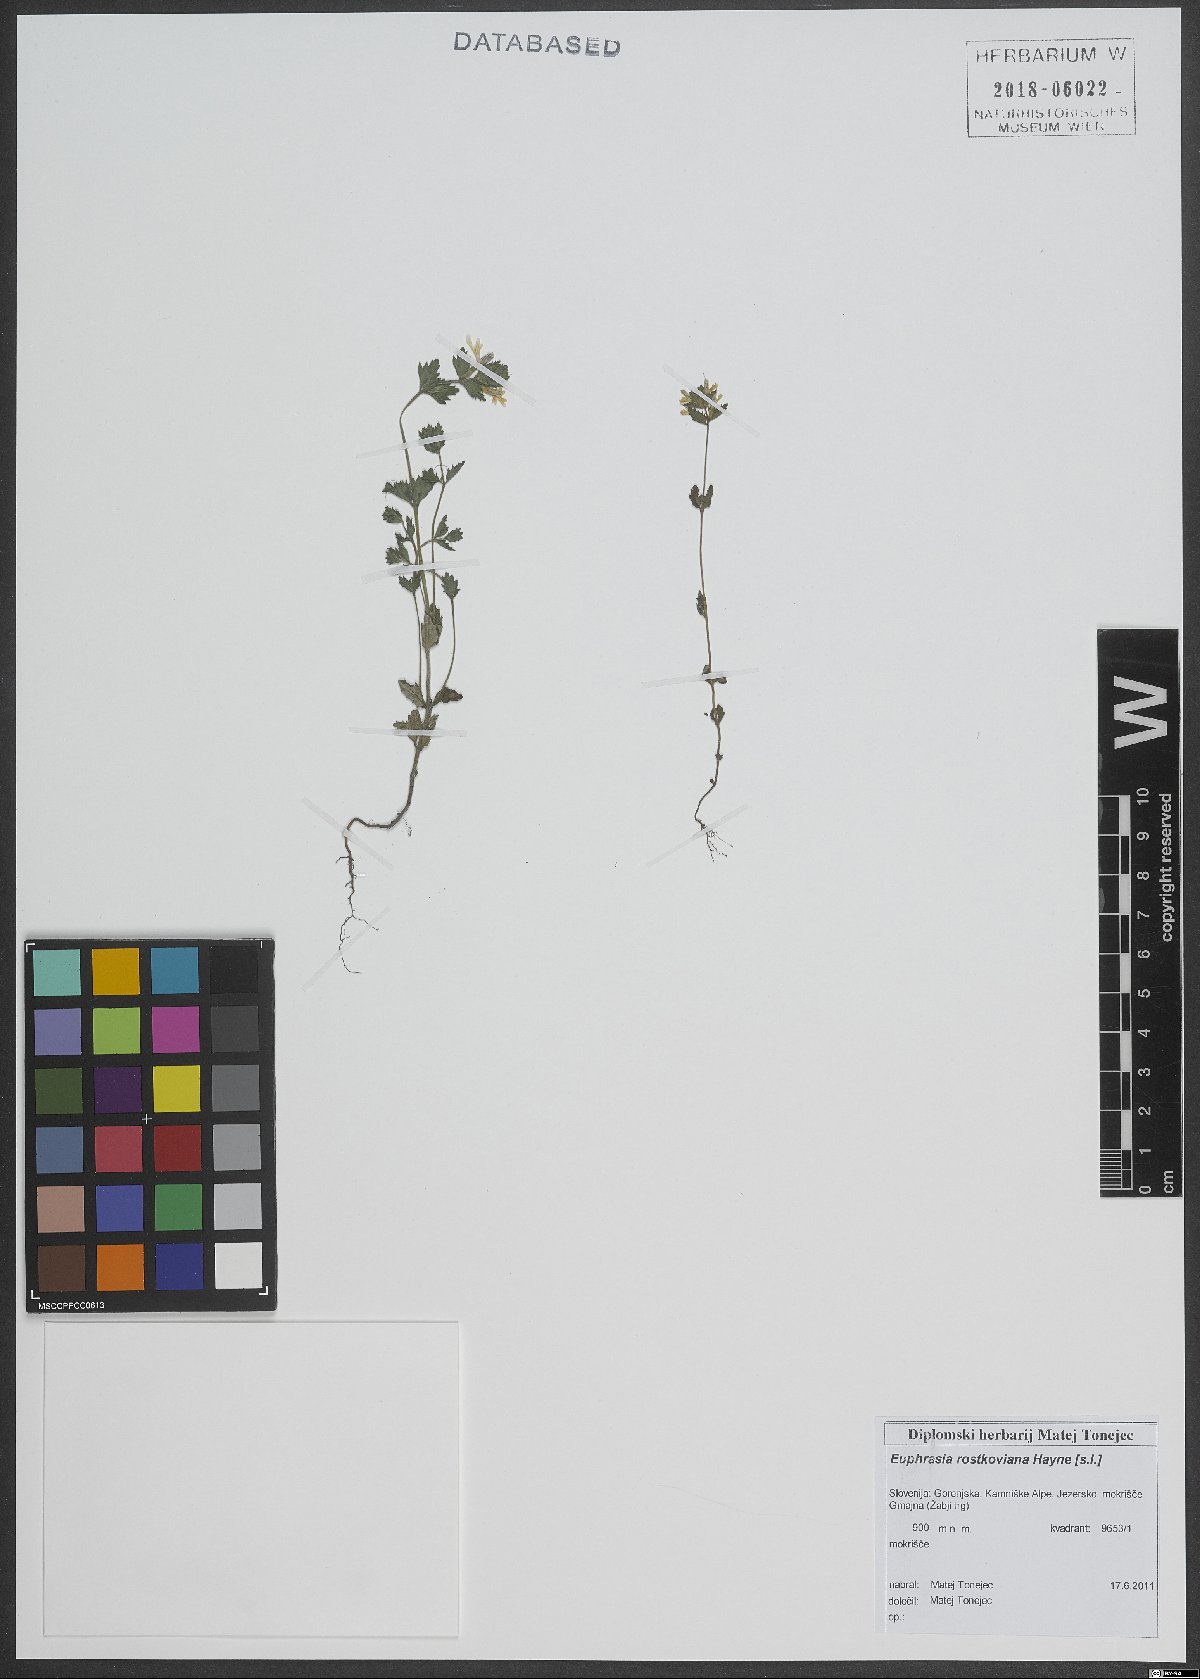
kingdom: Plantae
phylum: Tracheophyta
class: Magnoliopsida
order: Lamiales
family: Orobanchaceae
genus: Euphrasia
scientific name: Euphrasia officinalis
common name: Eyebright
